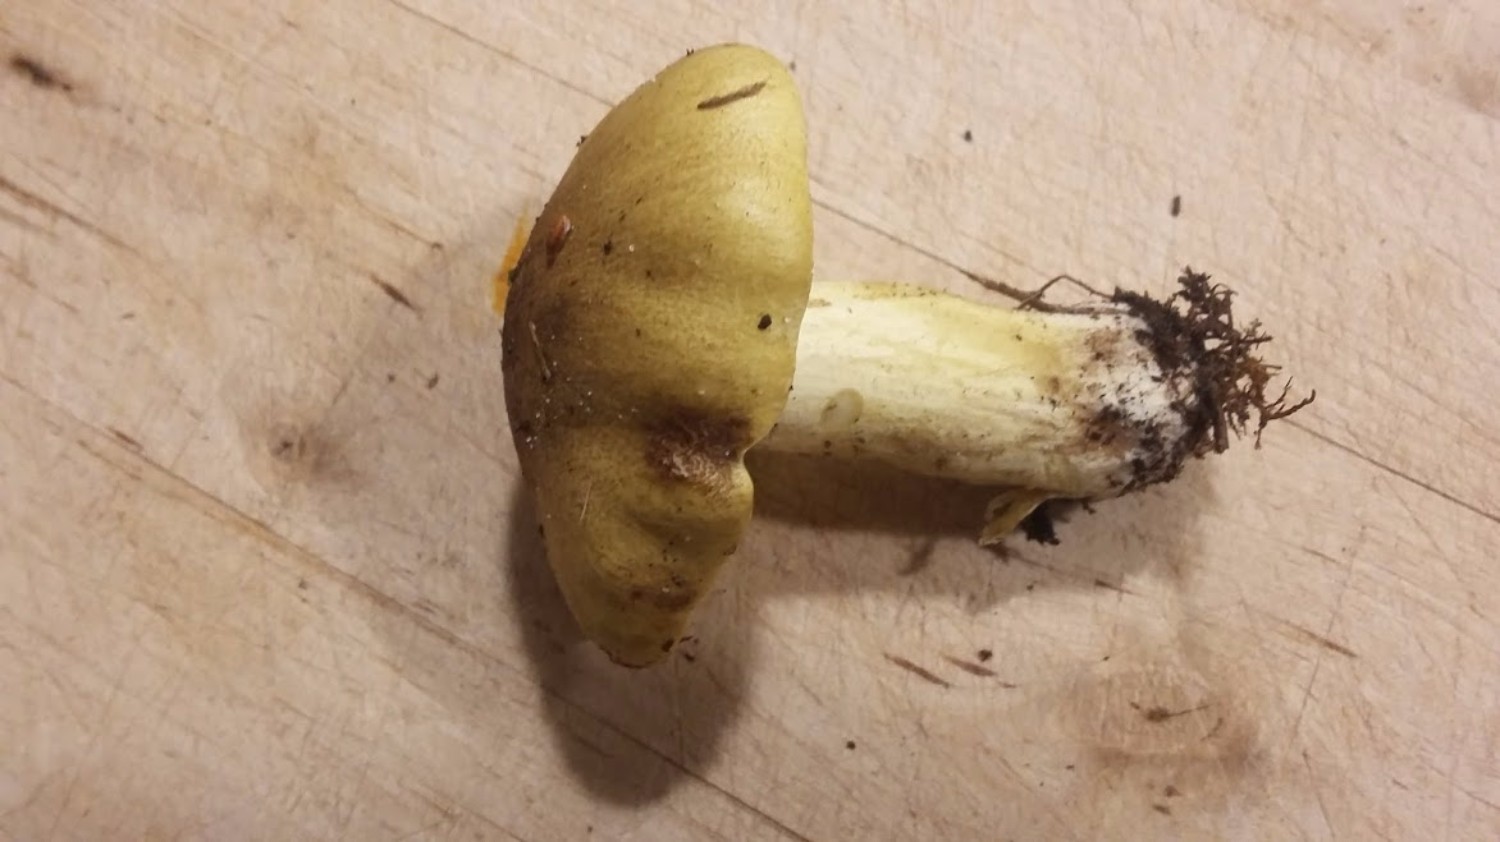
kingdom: Fungi
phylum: Basidiomycota
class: Agaricomycetes
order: Agaricales
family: Tricholomataceae
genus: Tricholoma
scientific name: Tricholoma equestre
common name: ægte ridderhat
